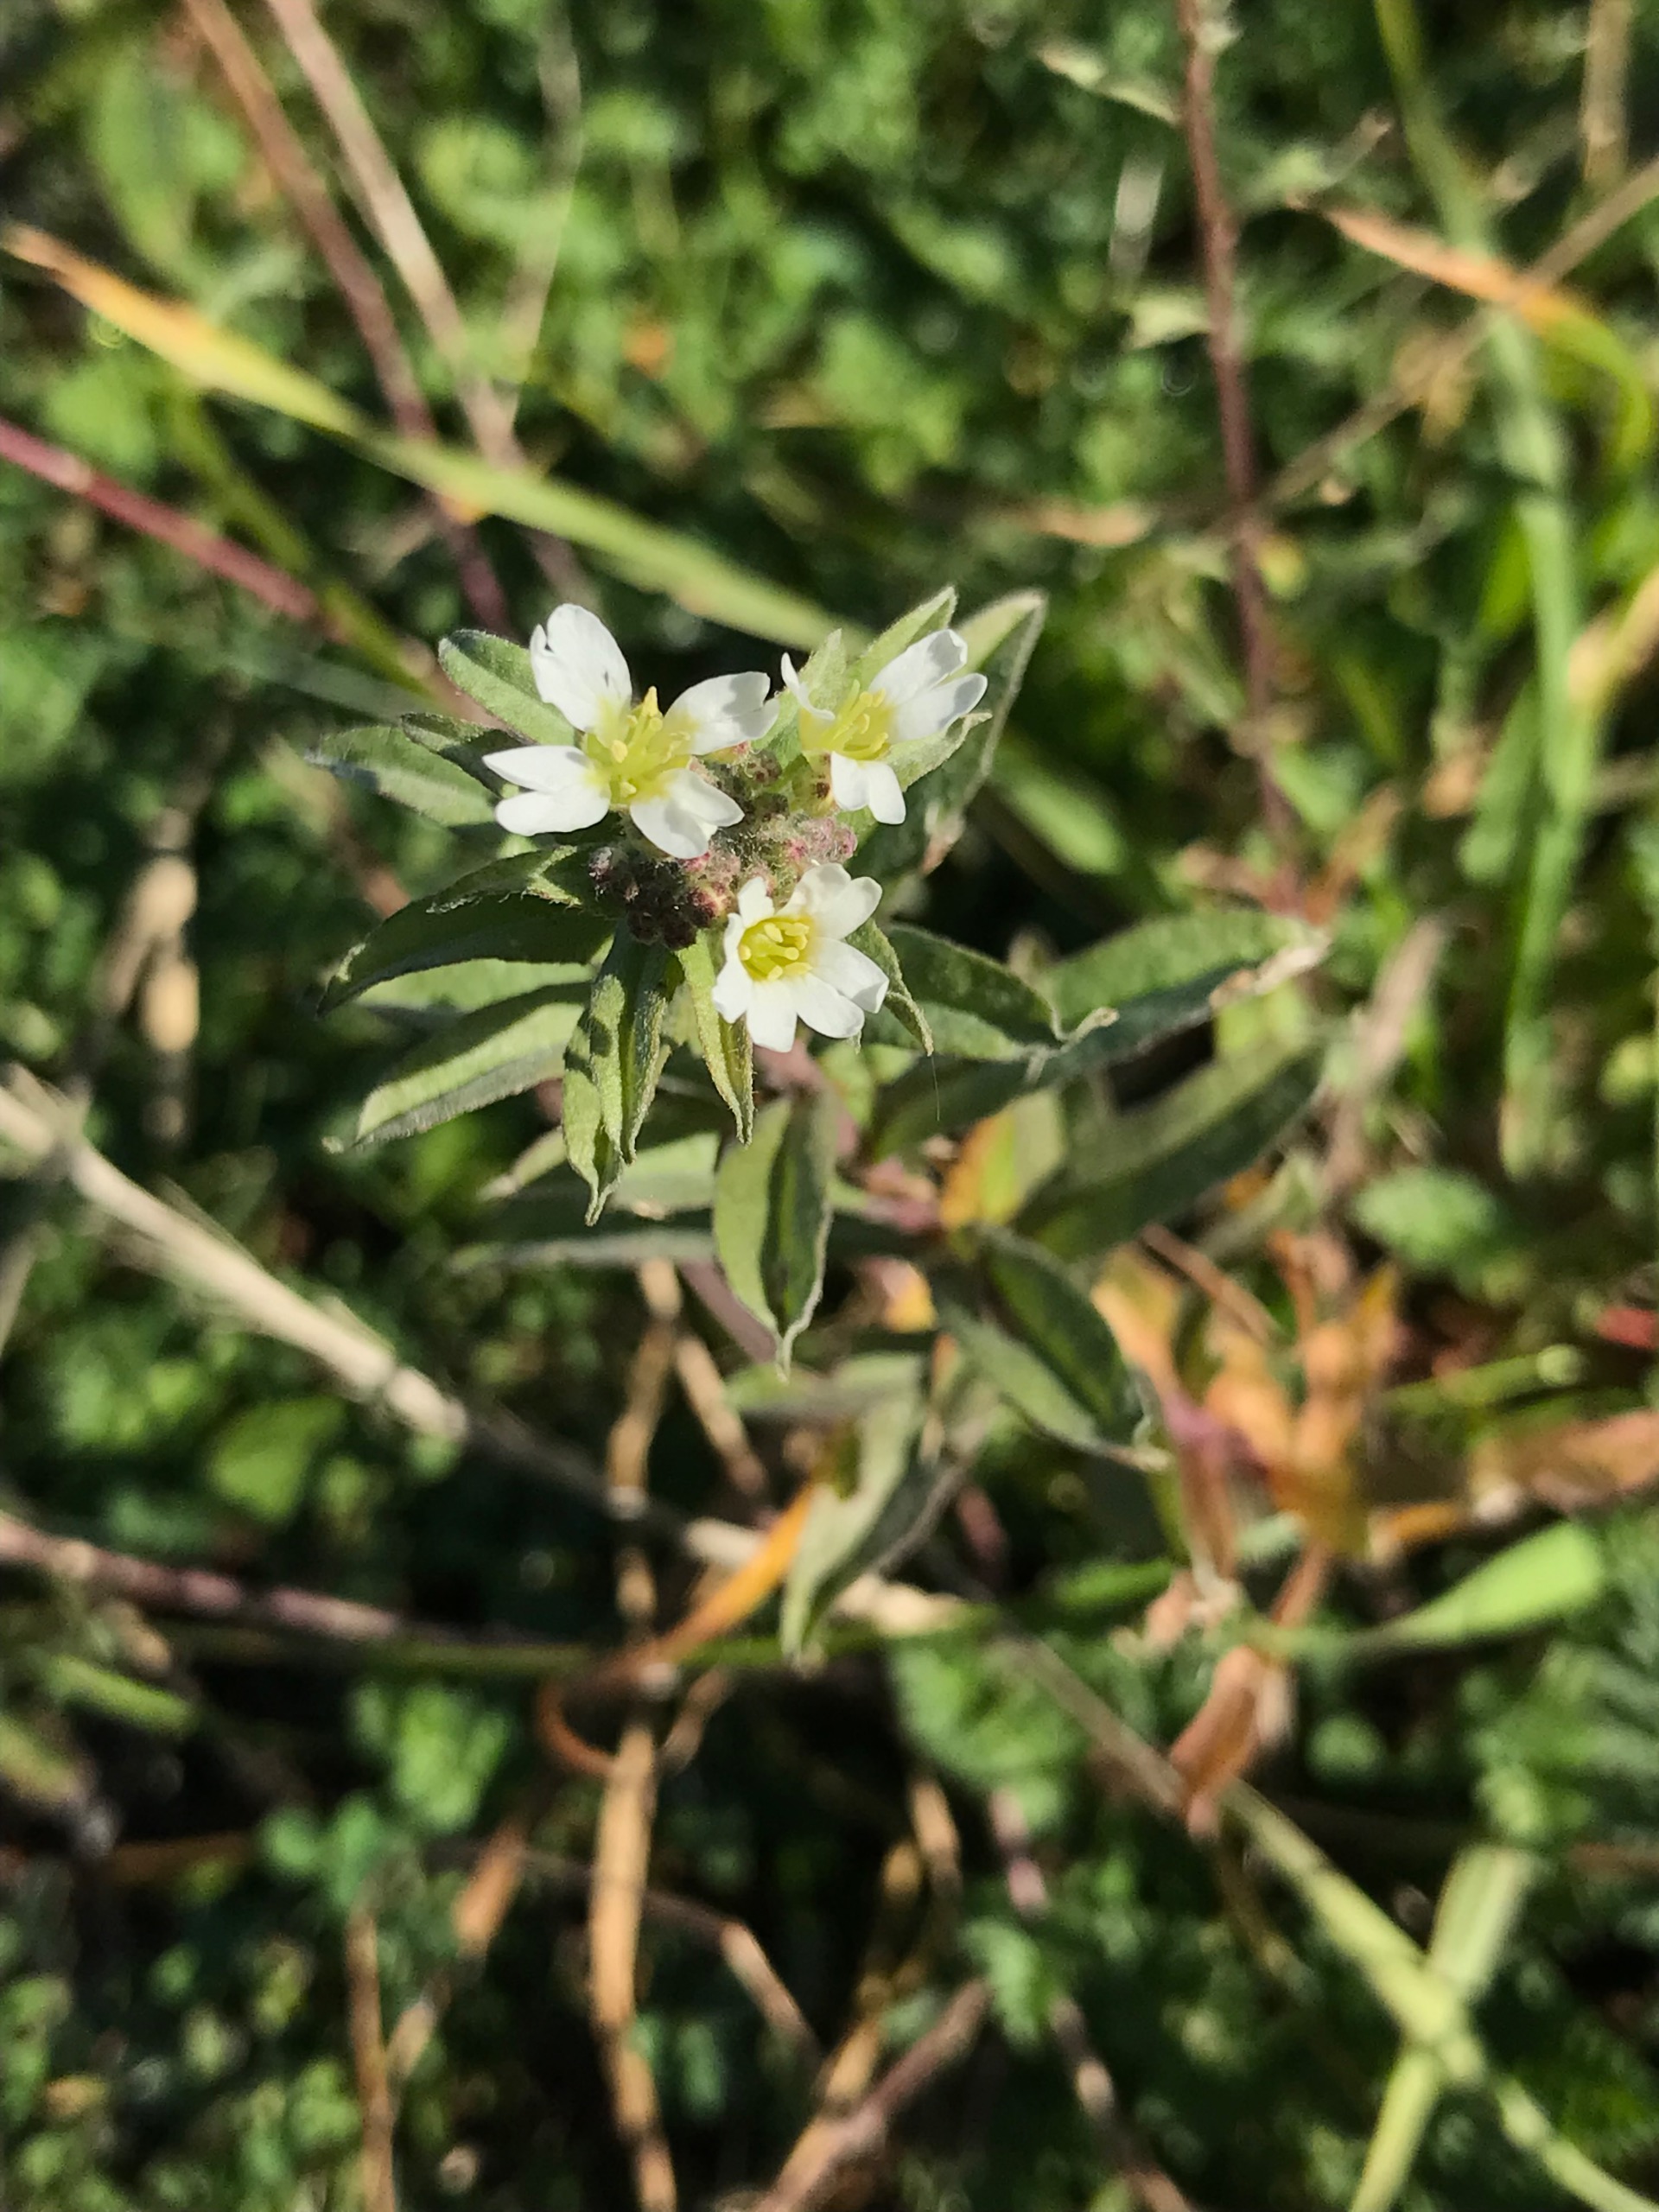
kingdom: Plantae
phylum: Tracheophyta
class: Magnoliopsida
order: Brassicales
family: Brassicaceae
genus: Berteroa
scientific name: Berteroa incana
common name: Kløvplade
